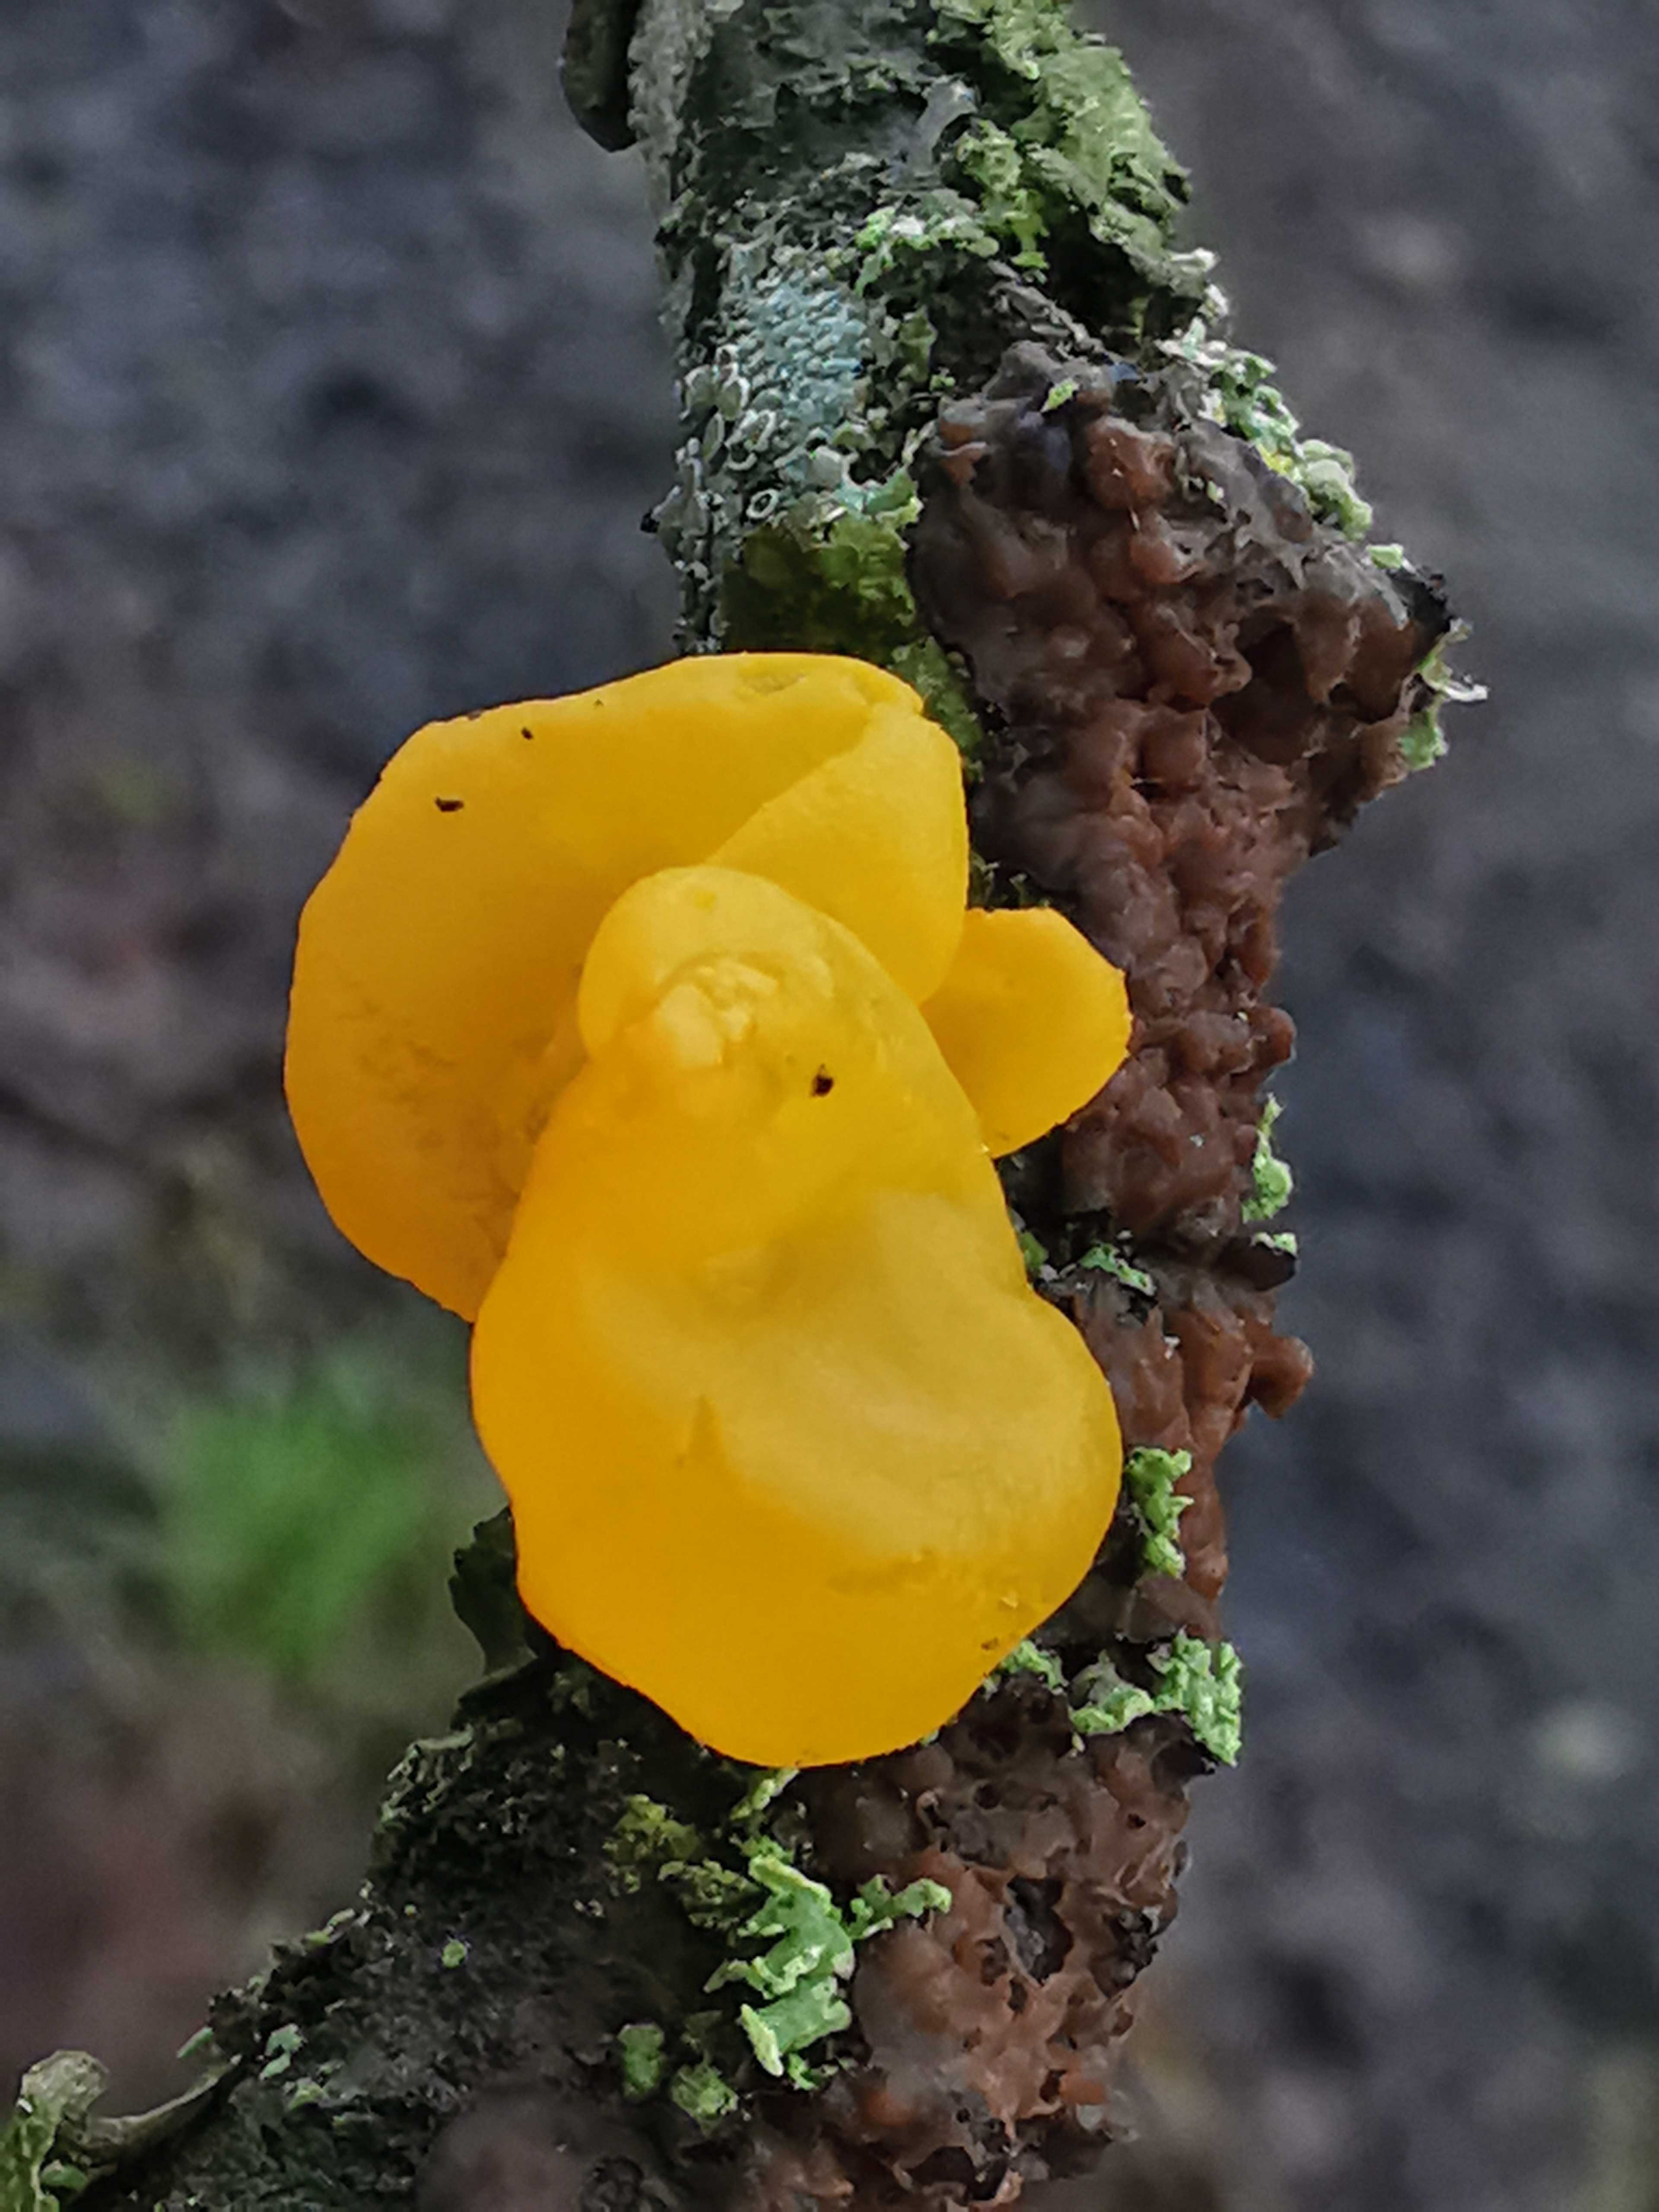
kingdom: Fungi
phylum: Basidiomycota
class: Tremellomycetes
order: Tremellales
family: Tremellaceae
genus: Tremella
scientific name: Tremella mesenterica
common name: gul bævresvamp
